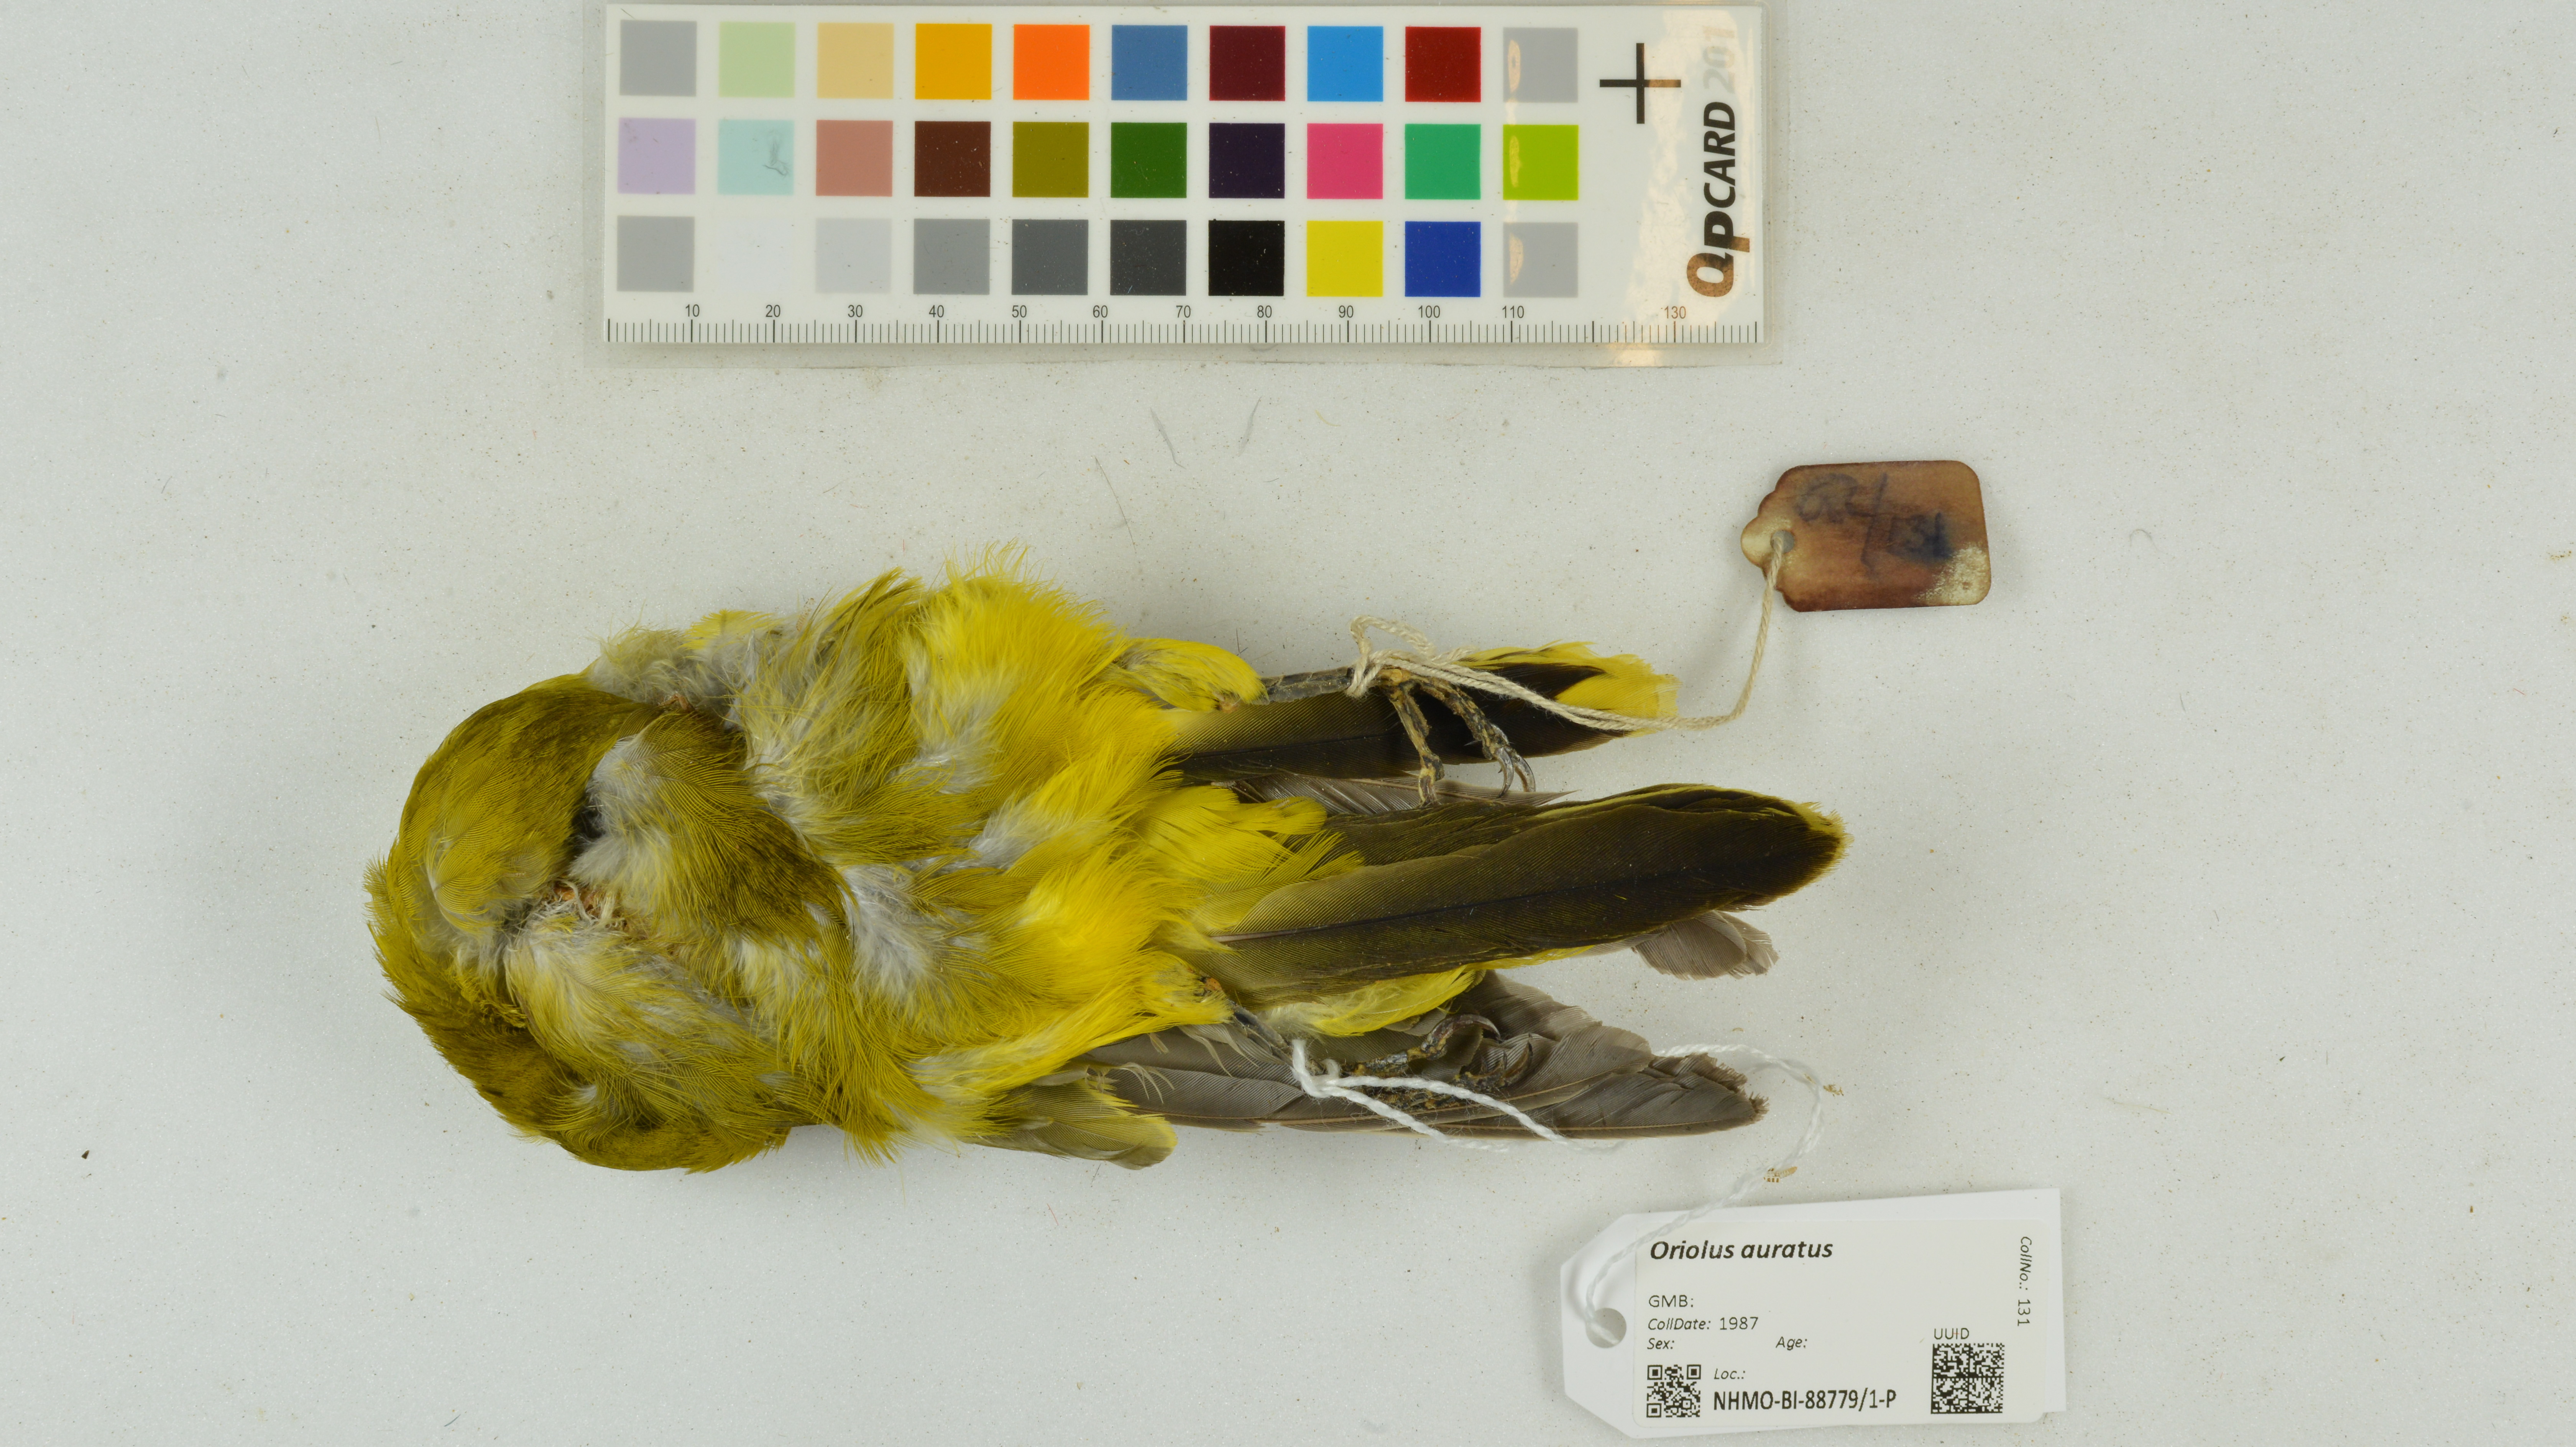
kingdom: Animalia
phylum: Chordata
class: Aves
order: Passeriformes
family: Oriolidae
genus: Oriolus
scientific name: Oriolus auratus
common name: African golden oriole
